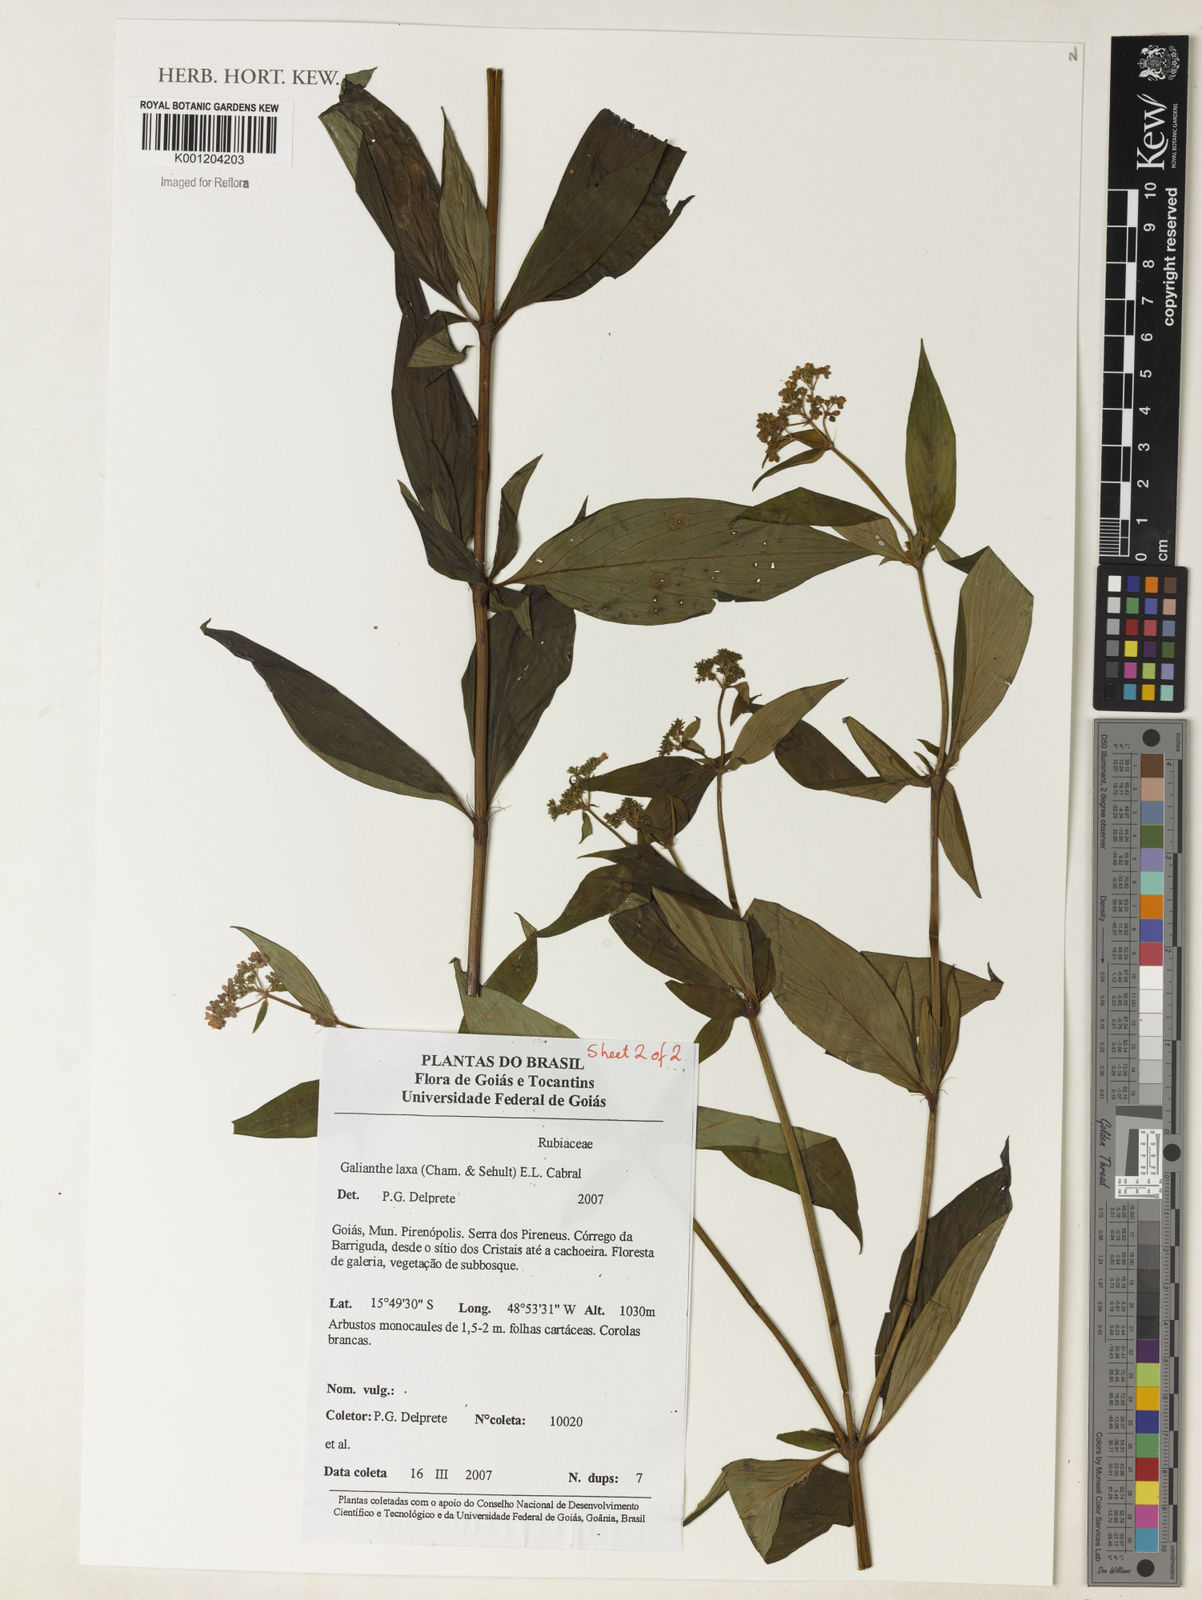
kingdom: Plantae
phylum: Tracheophyta
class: Magnoliopsida
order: Gentianales
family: Rubiaceae
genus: Galianthe
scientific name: Galianthe laxa
